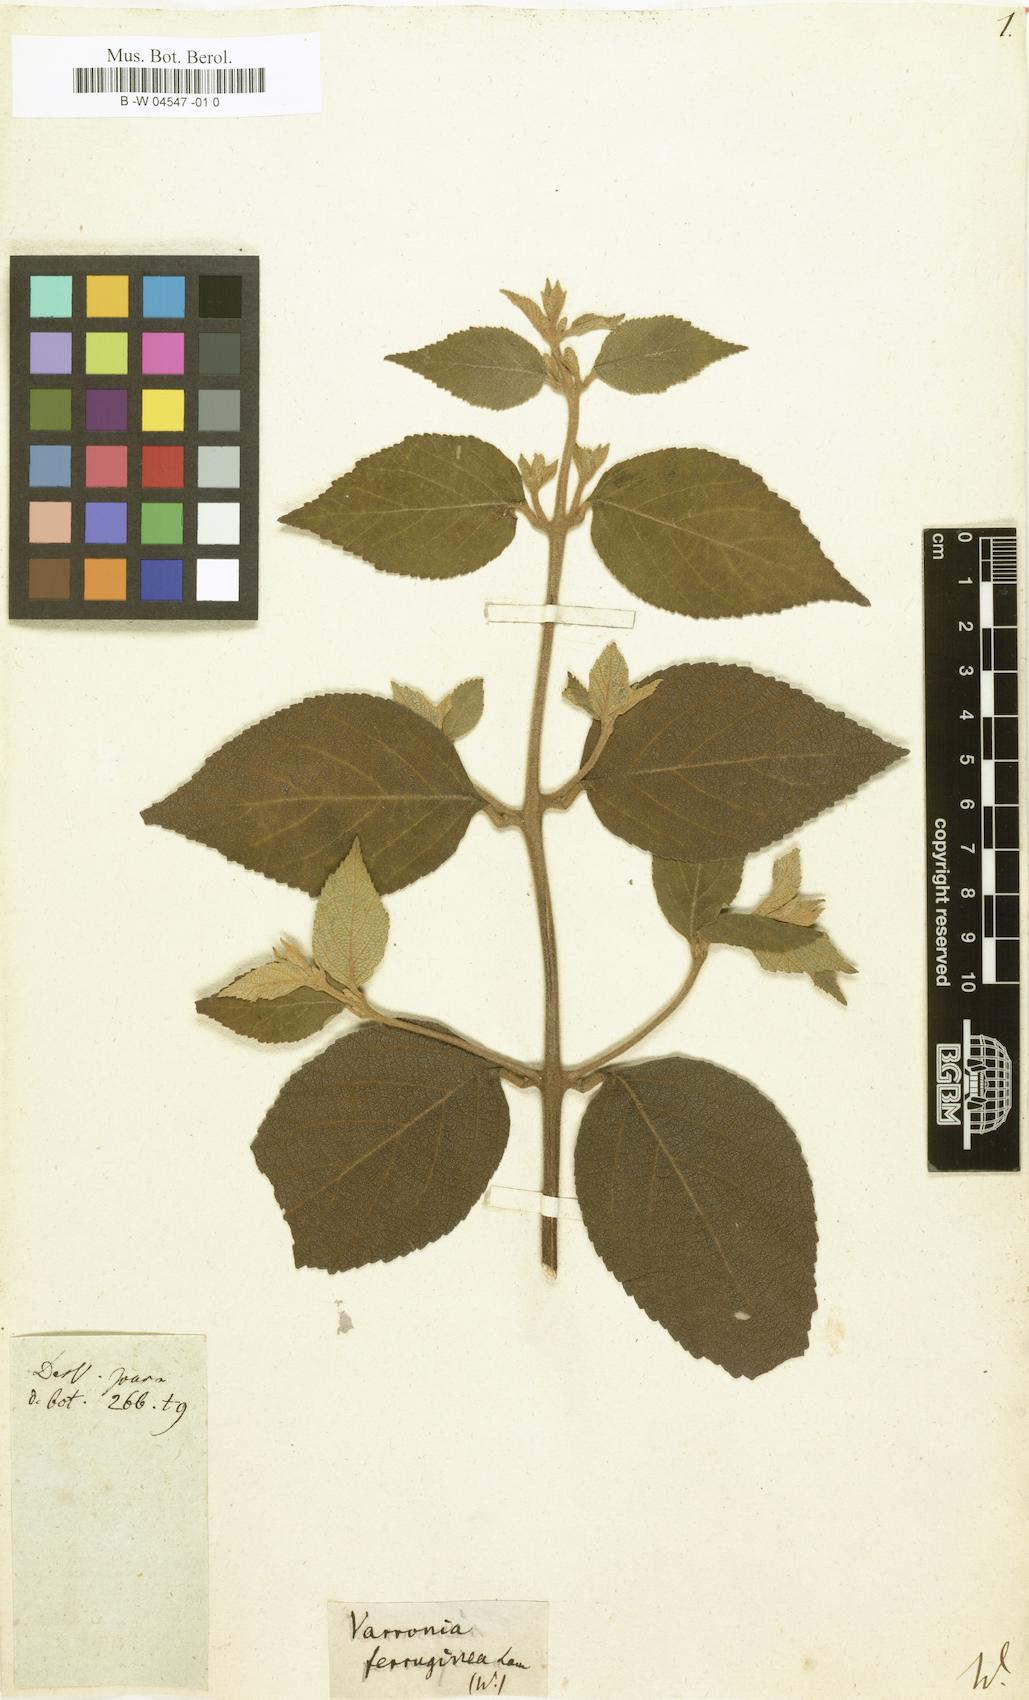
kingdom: Plantae
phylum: Tracheophyta
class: Magnoliopsida
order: Boraginales
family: Cordiaceae
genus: Varronia
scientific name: Varronia spinescens
